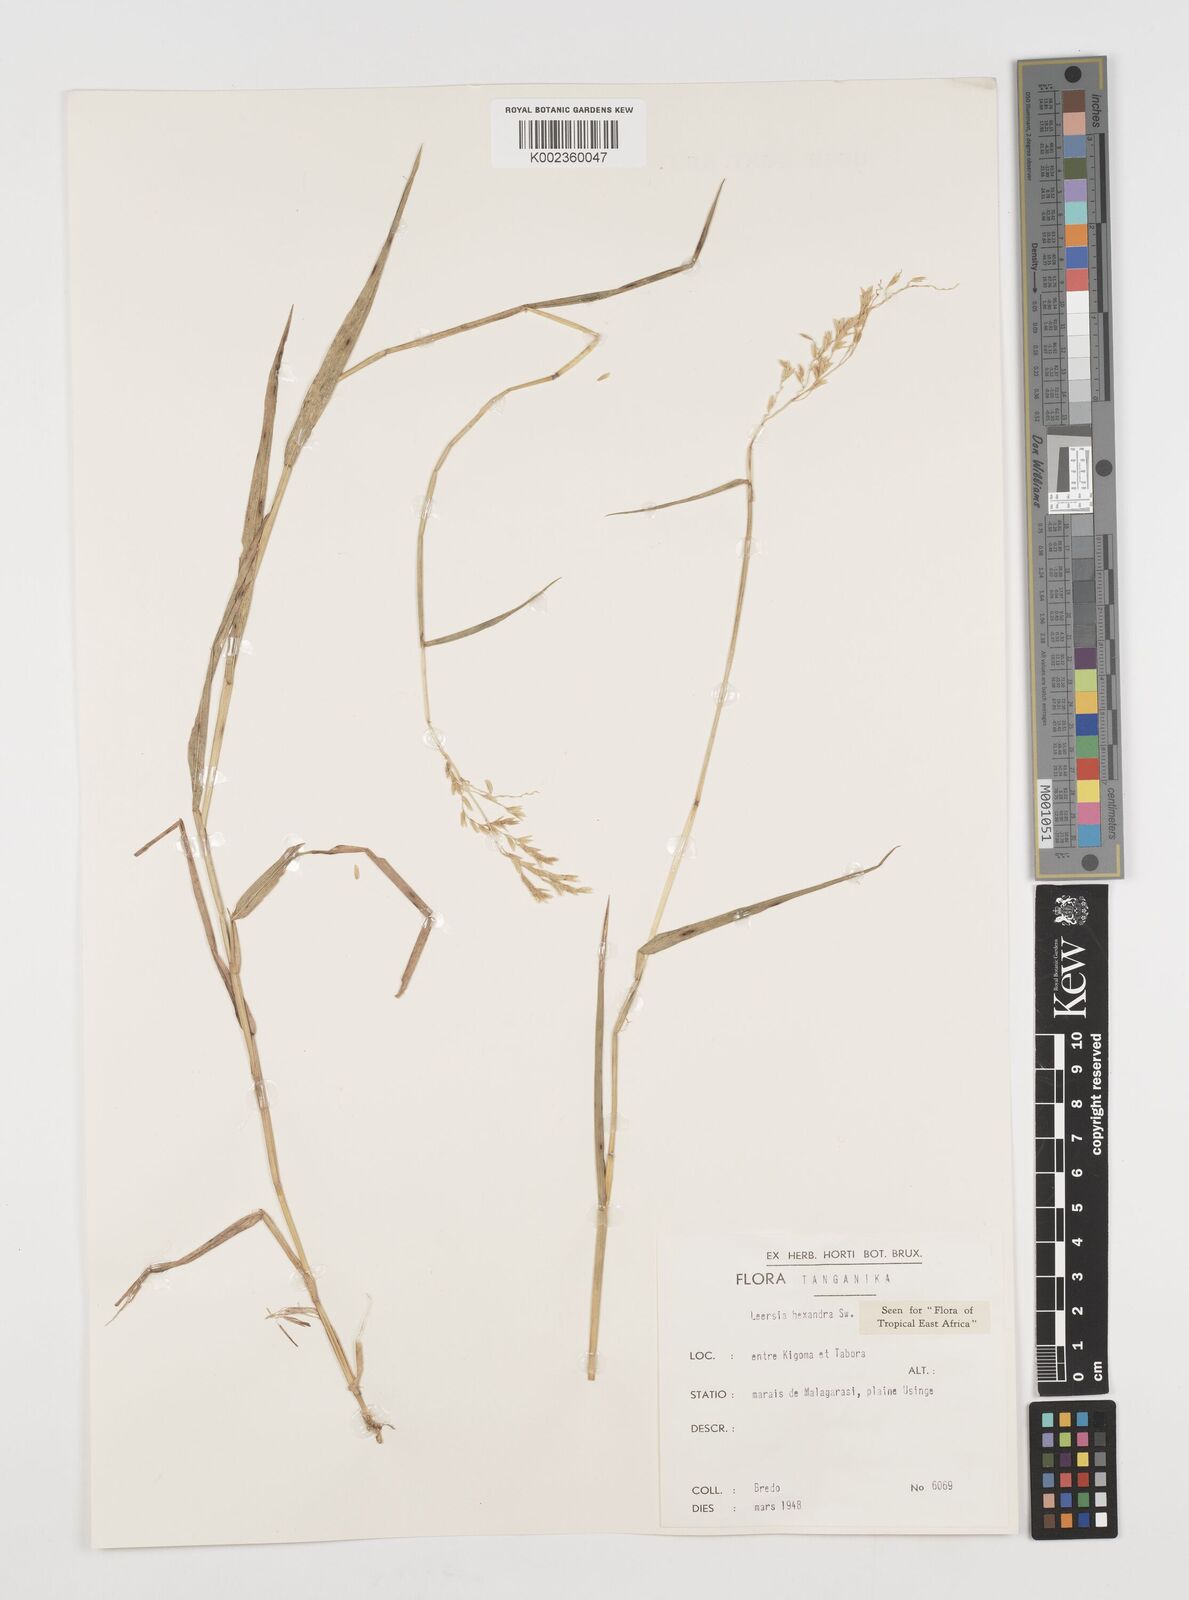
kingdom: Plantae
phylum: Tracheophyta
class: Liliopsida
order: Poales
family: Poaceae
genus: Leersia
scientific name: Leersia hexandra
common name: Southern cut grass
